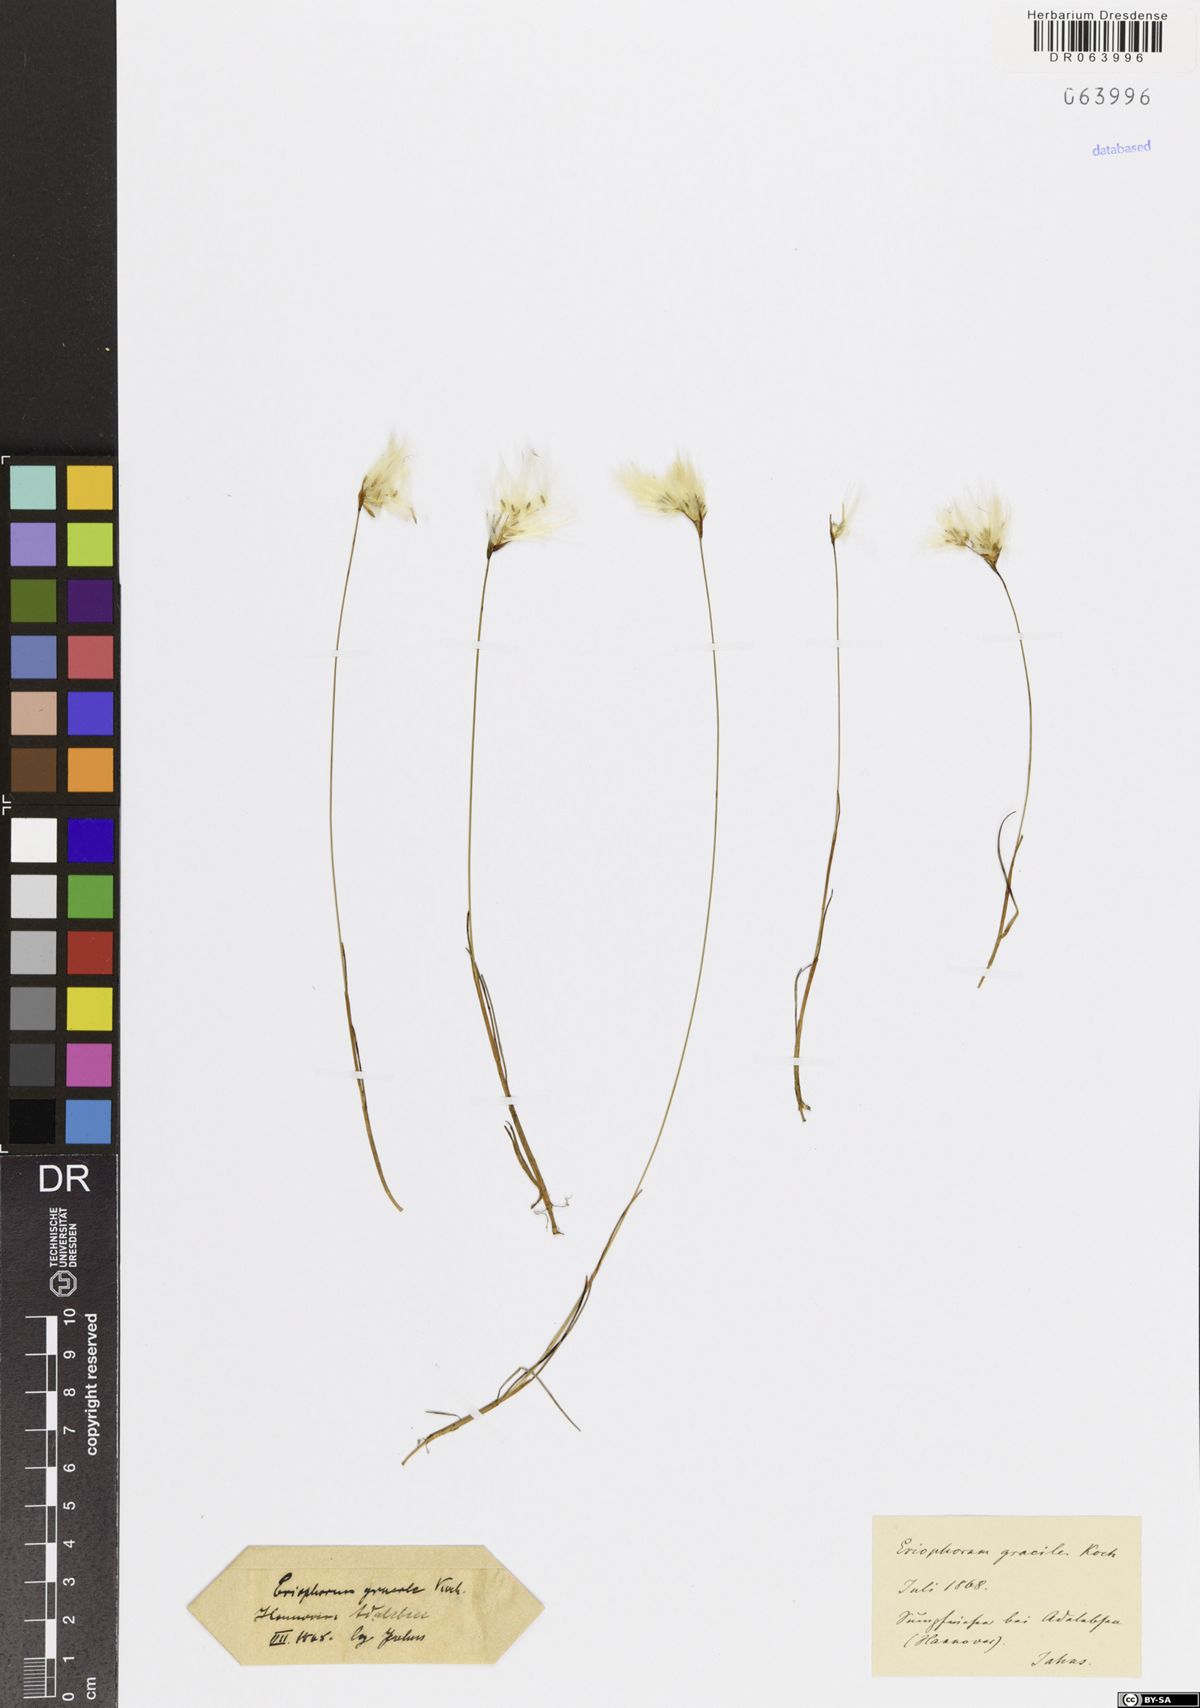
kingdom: Plantae
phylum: Tracheophyta
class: Liliopsida
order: Poales
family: Cyperaceae
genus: Eriophorum
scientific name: Eriophorum gracile
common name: Slender cottongrass
